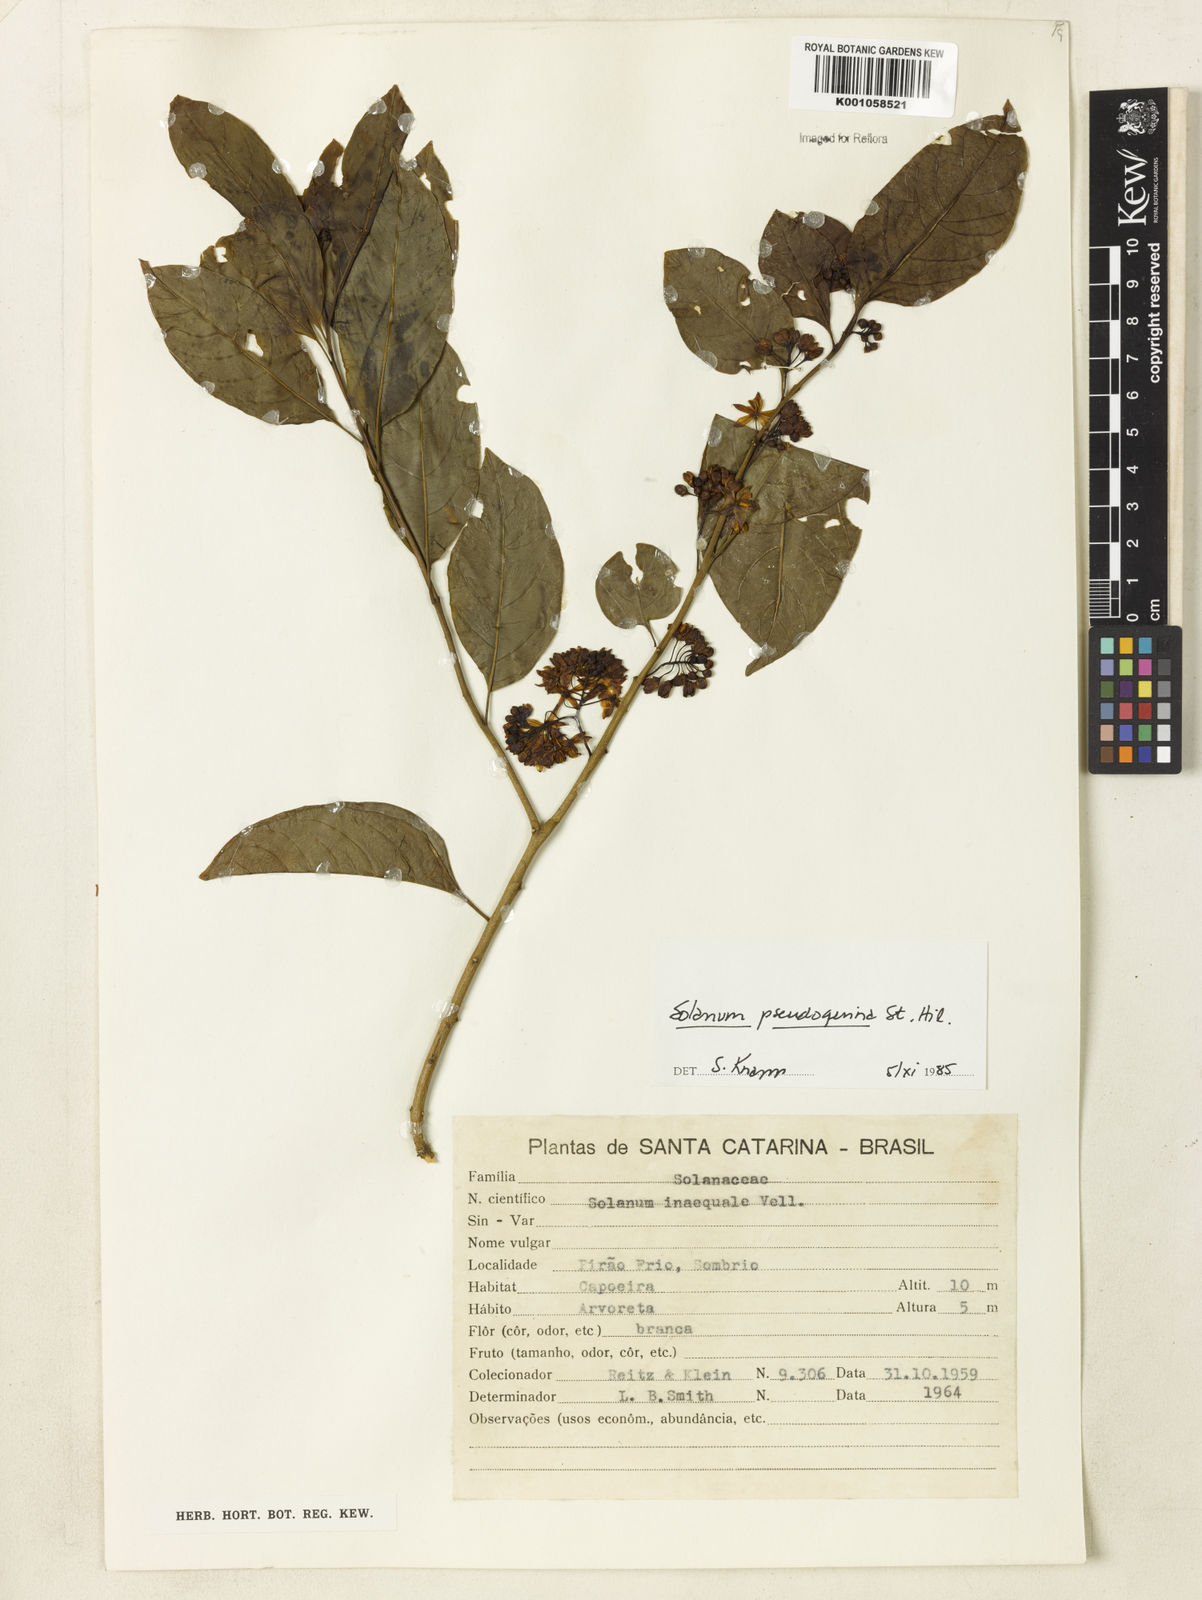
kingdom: Plantae
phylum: Tracheophyta
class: Magnoliopsida
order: Solanales
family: Solanaceae
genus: Solanum
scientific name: Solanum pseudoquina
